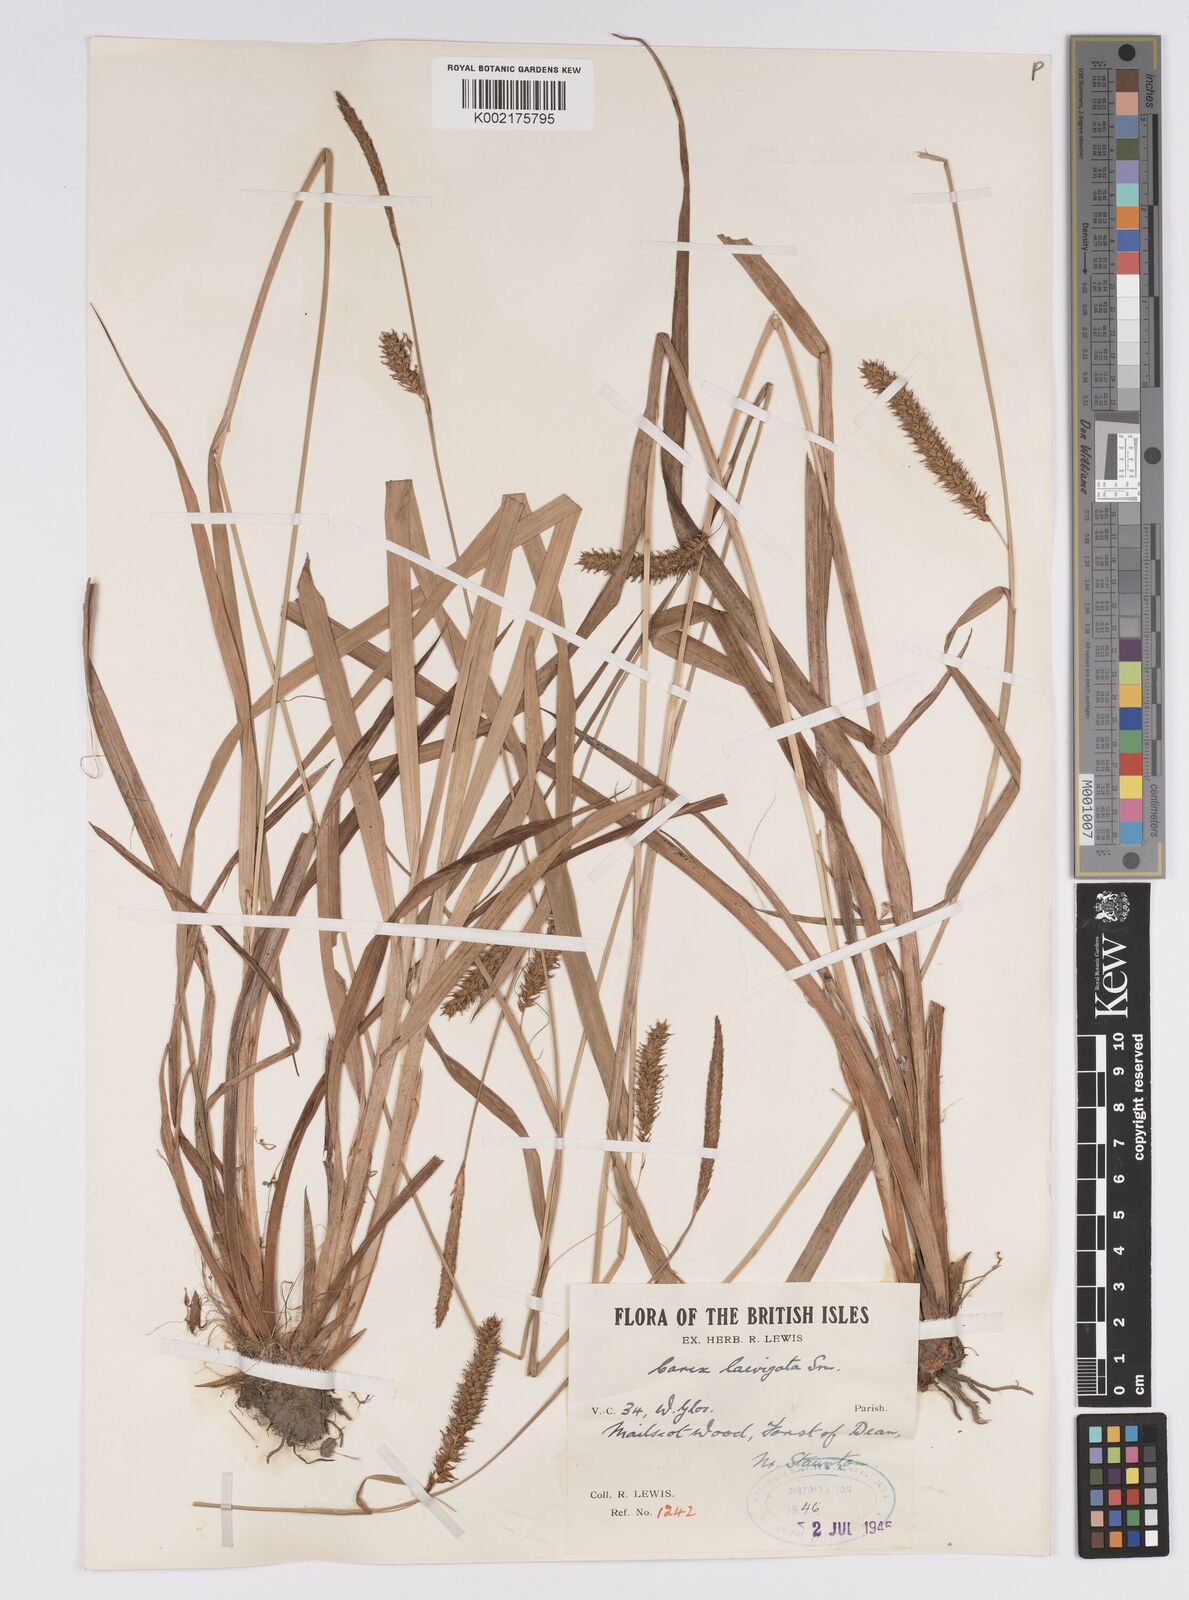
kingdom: Plantae
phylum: Tracheophyta
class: Liliopsida
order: Poales
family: Cyperaceae
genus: Carex
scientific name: Carex laevigata
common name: Smooth-stalked sedge
